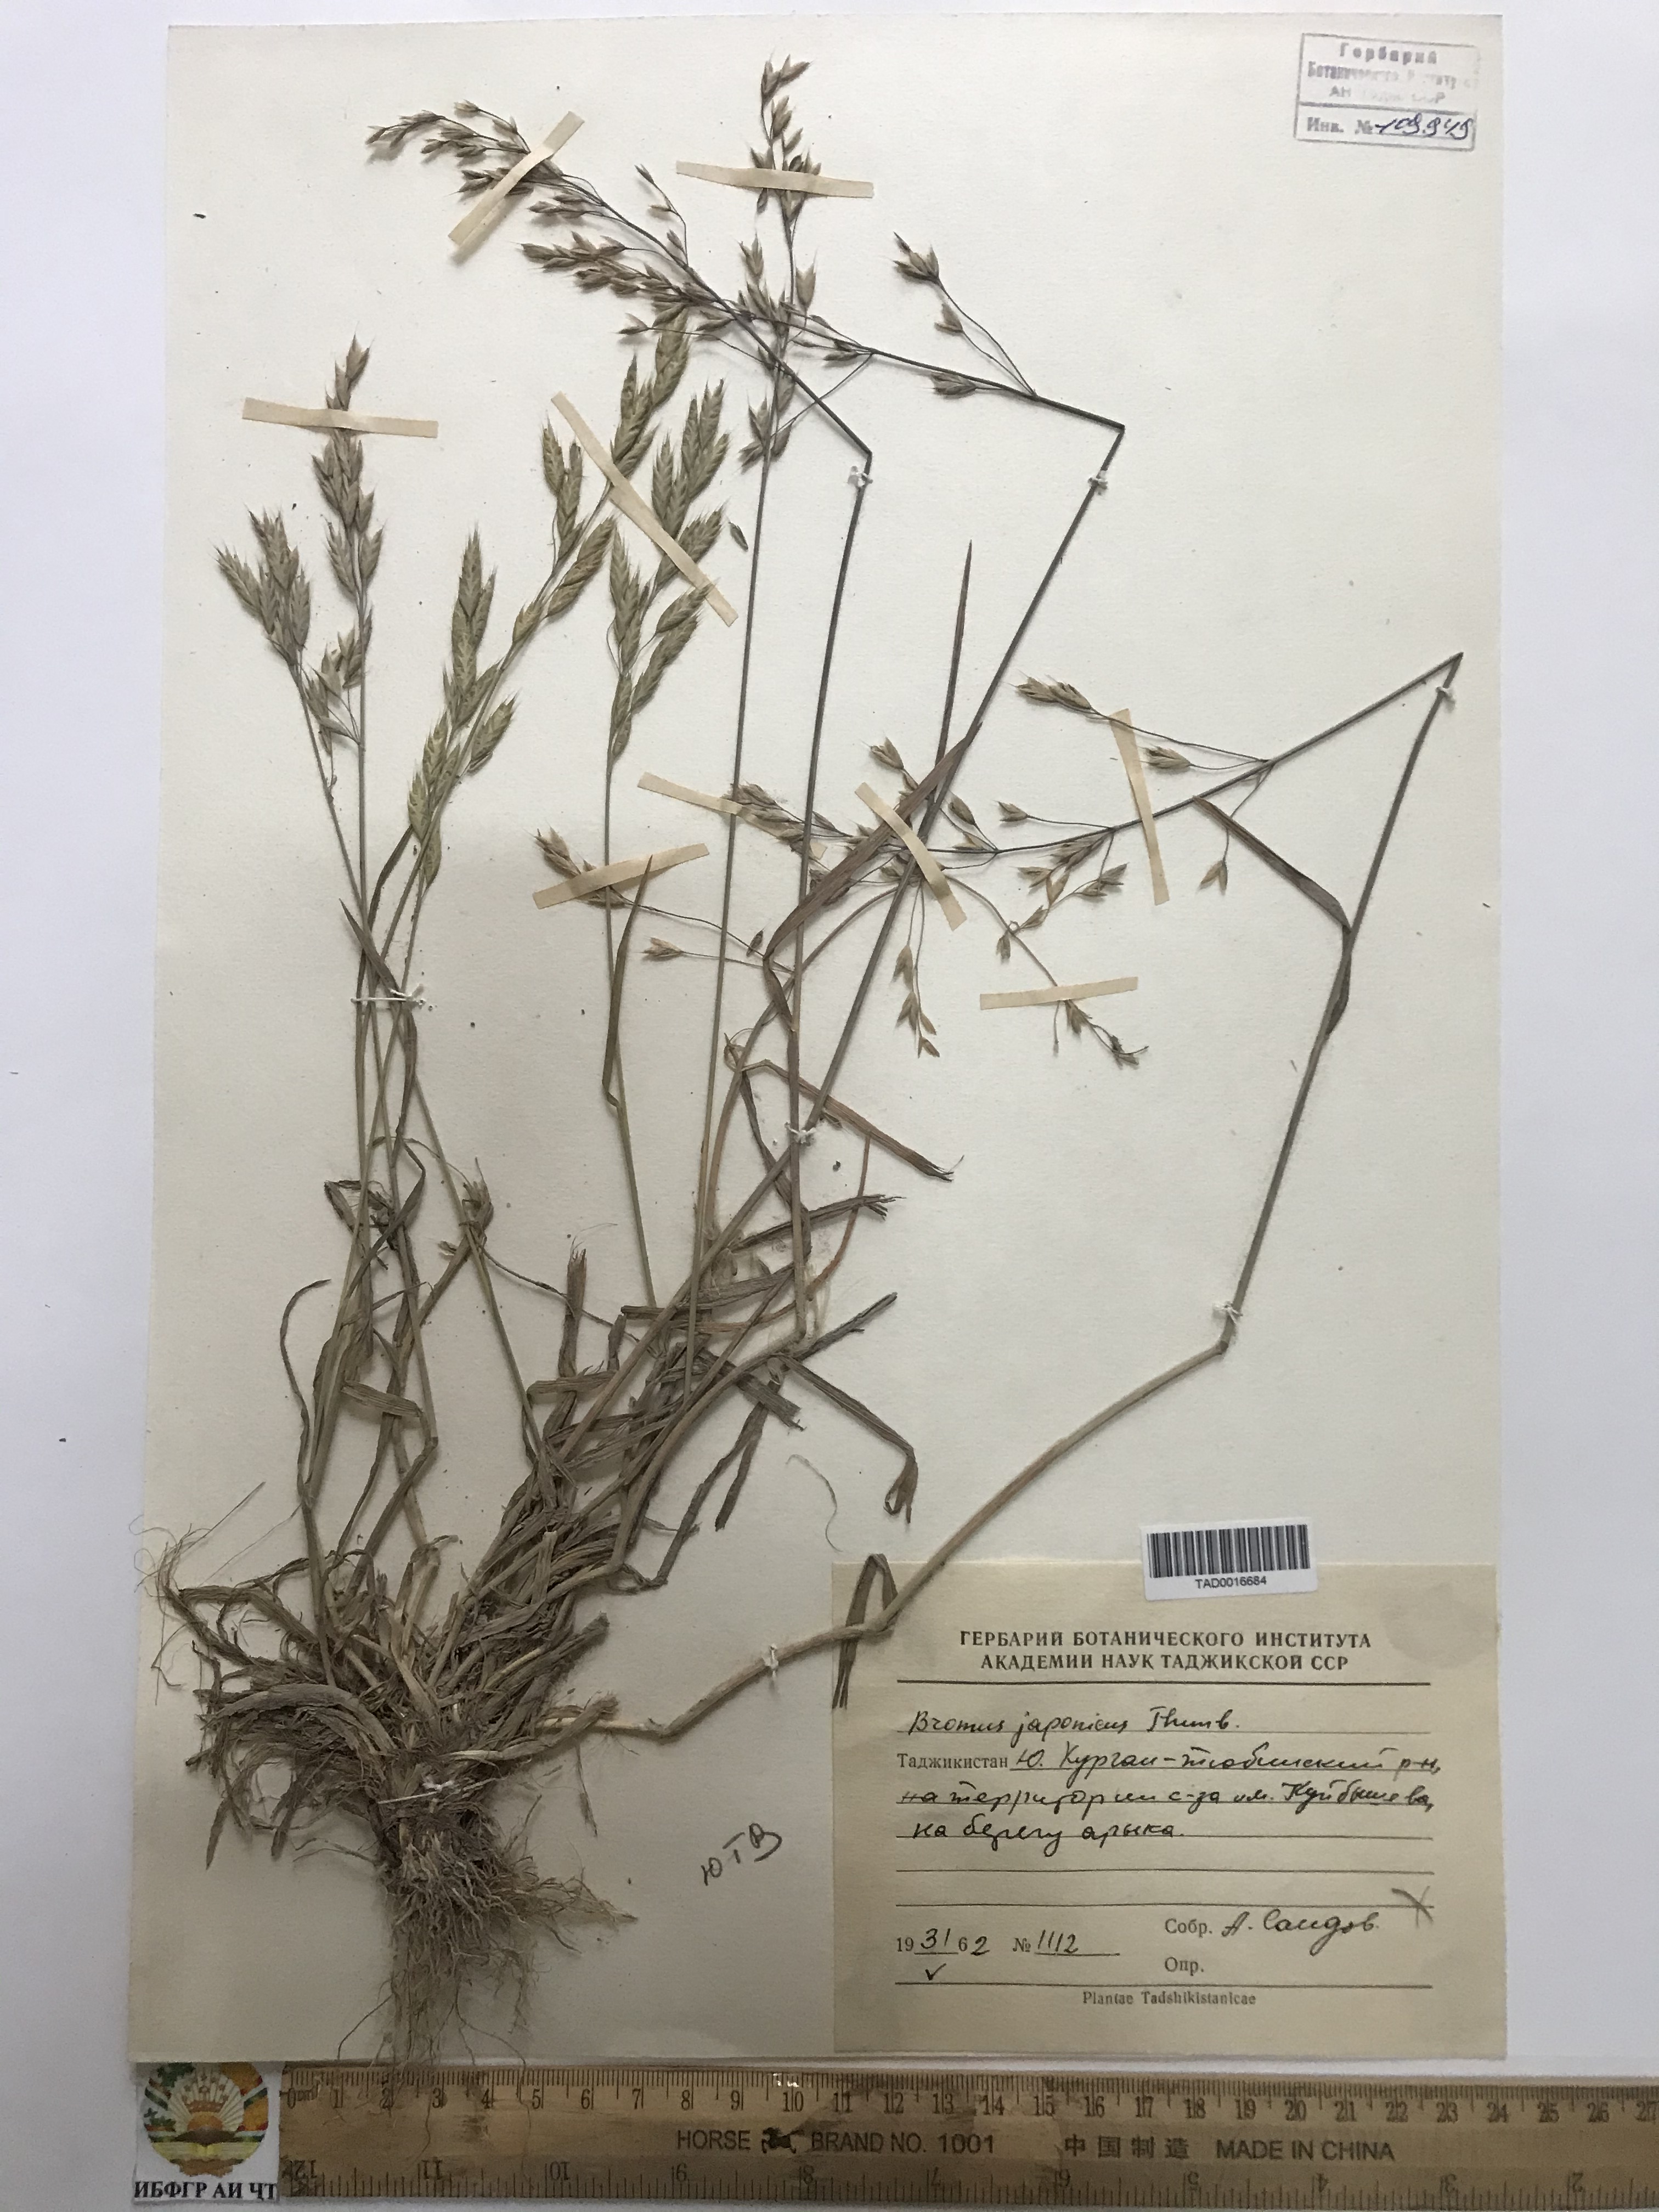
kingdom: Plantae
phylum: Tracheophyta
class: Liliopsida
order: Poales
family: Poaceae
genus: Bromus
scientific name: Bromus japonicus
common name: Japanese brome
